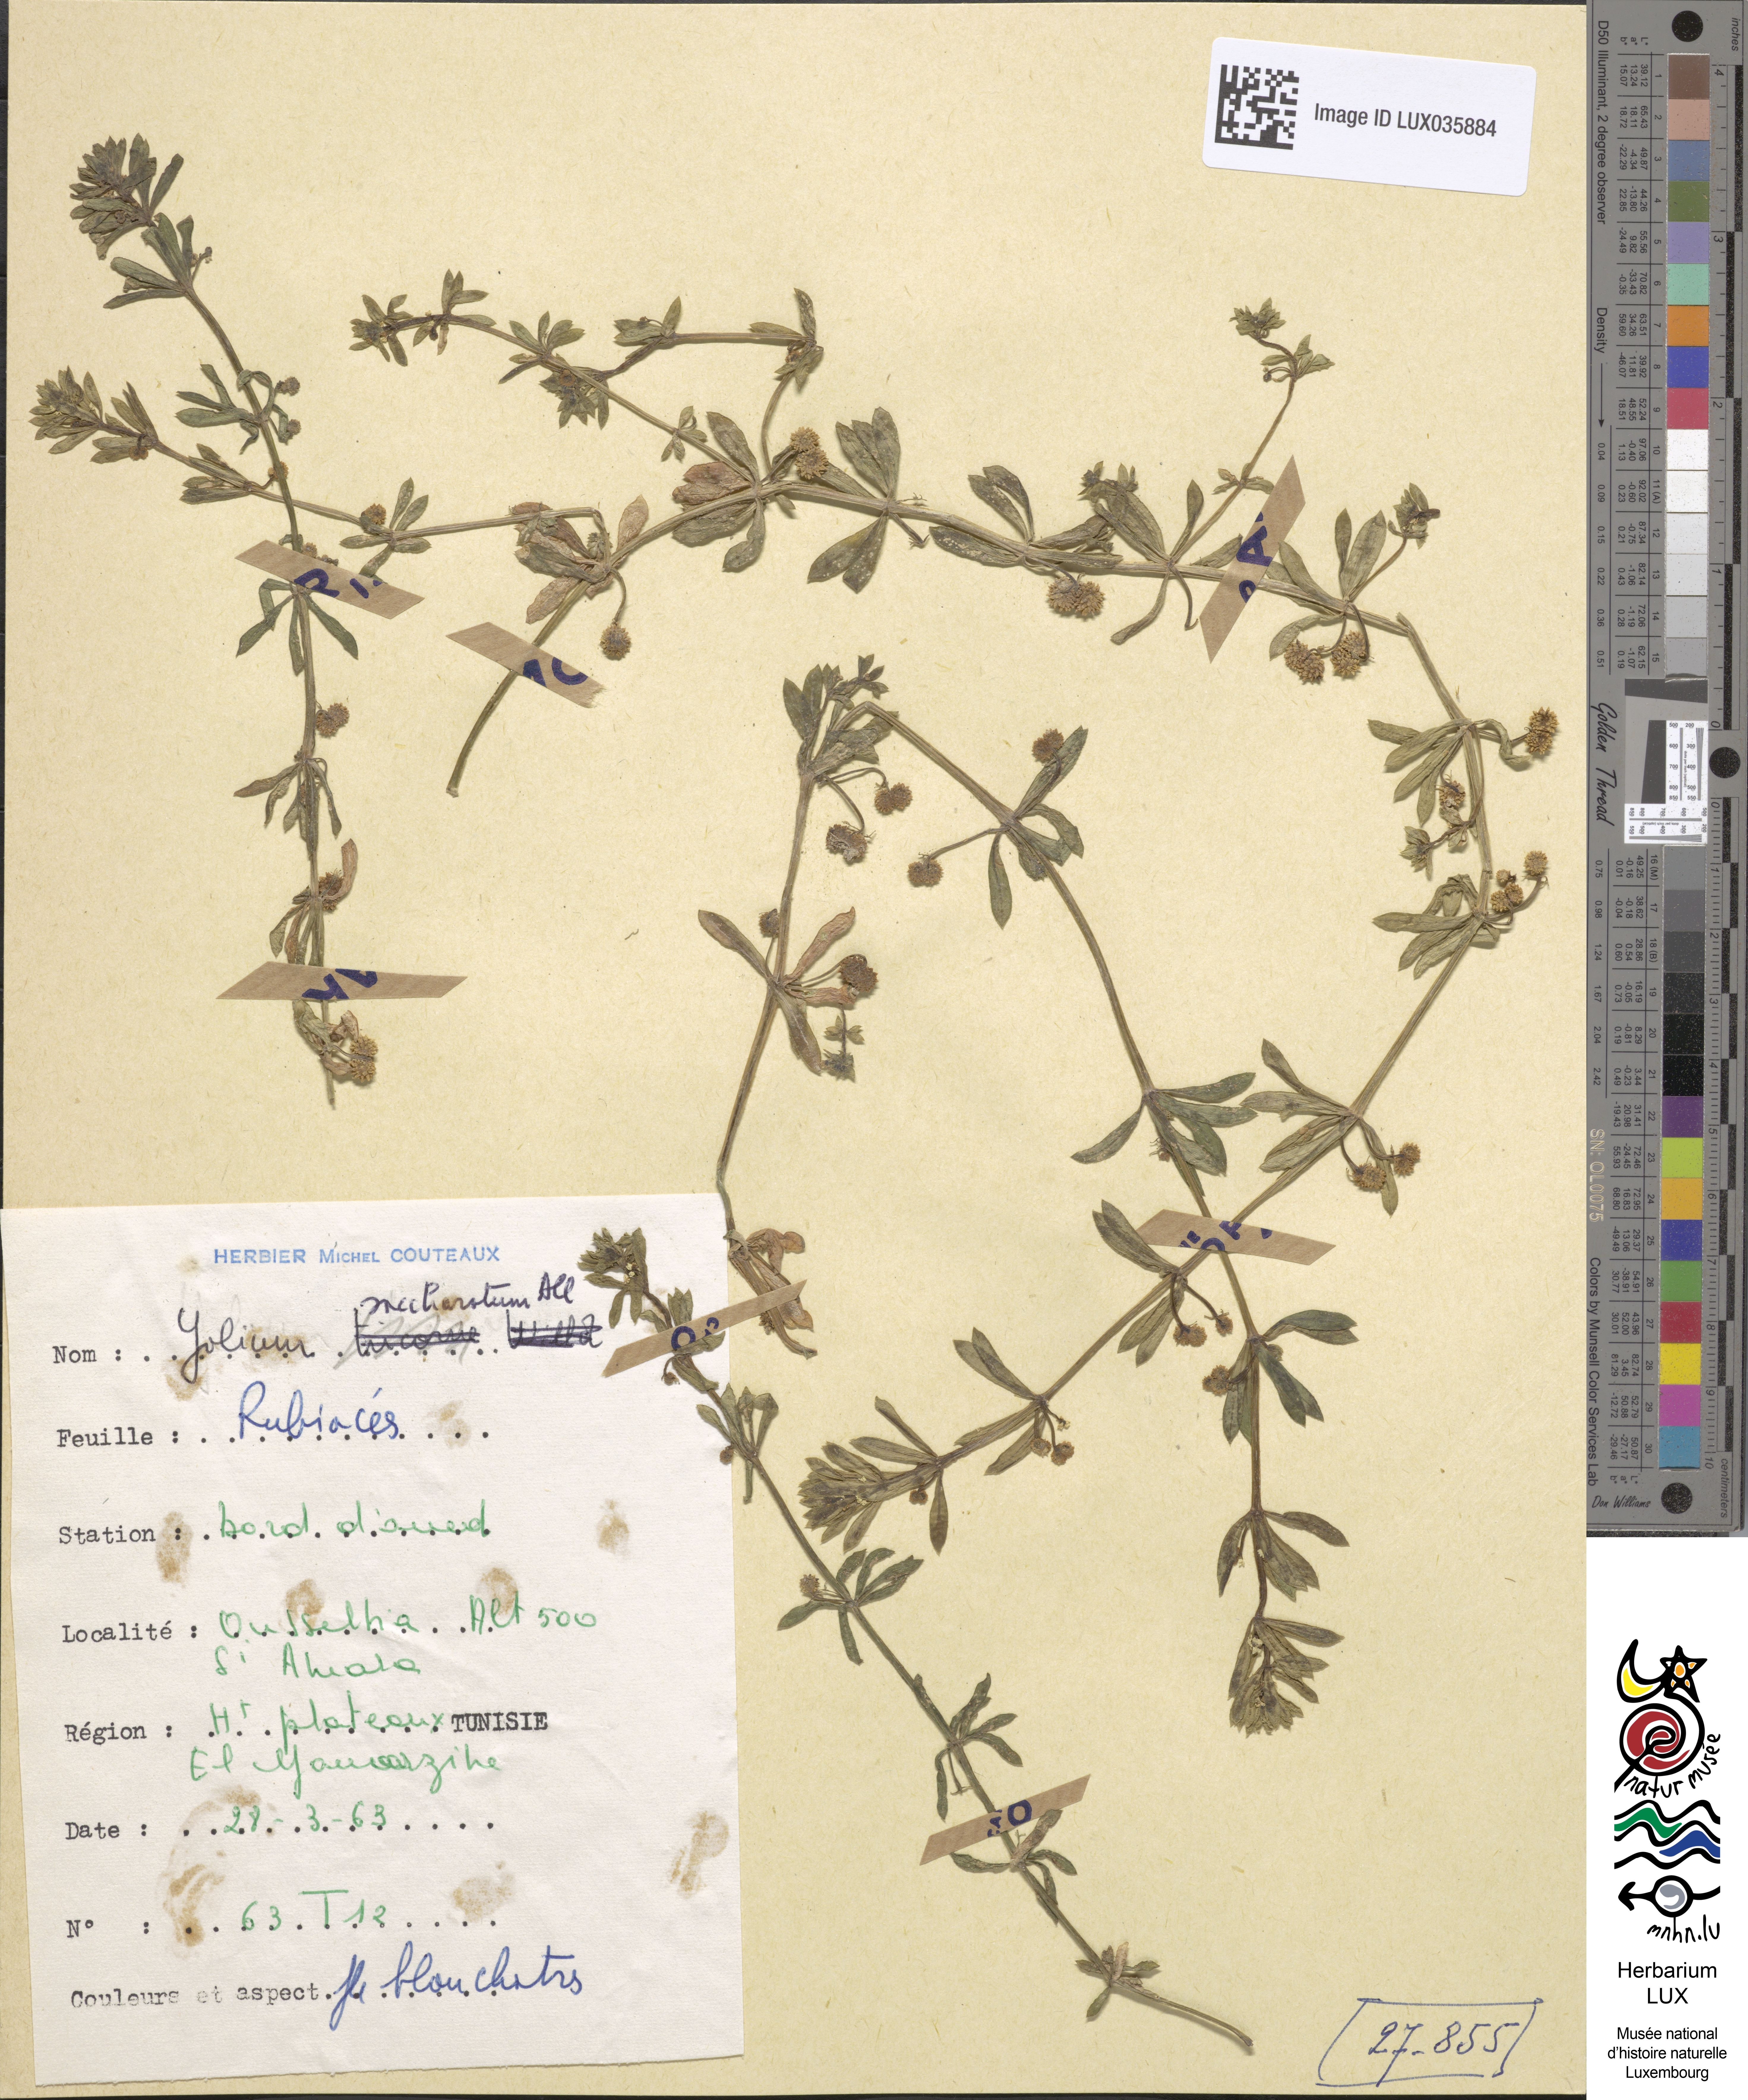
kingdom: Plantae
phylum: Tracheophyta
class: Magnoliopsida
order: Gentianales
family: Rubiaceae
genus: Galium
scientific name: Galium verrucosum
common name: Warty bedstraw
